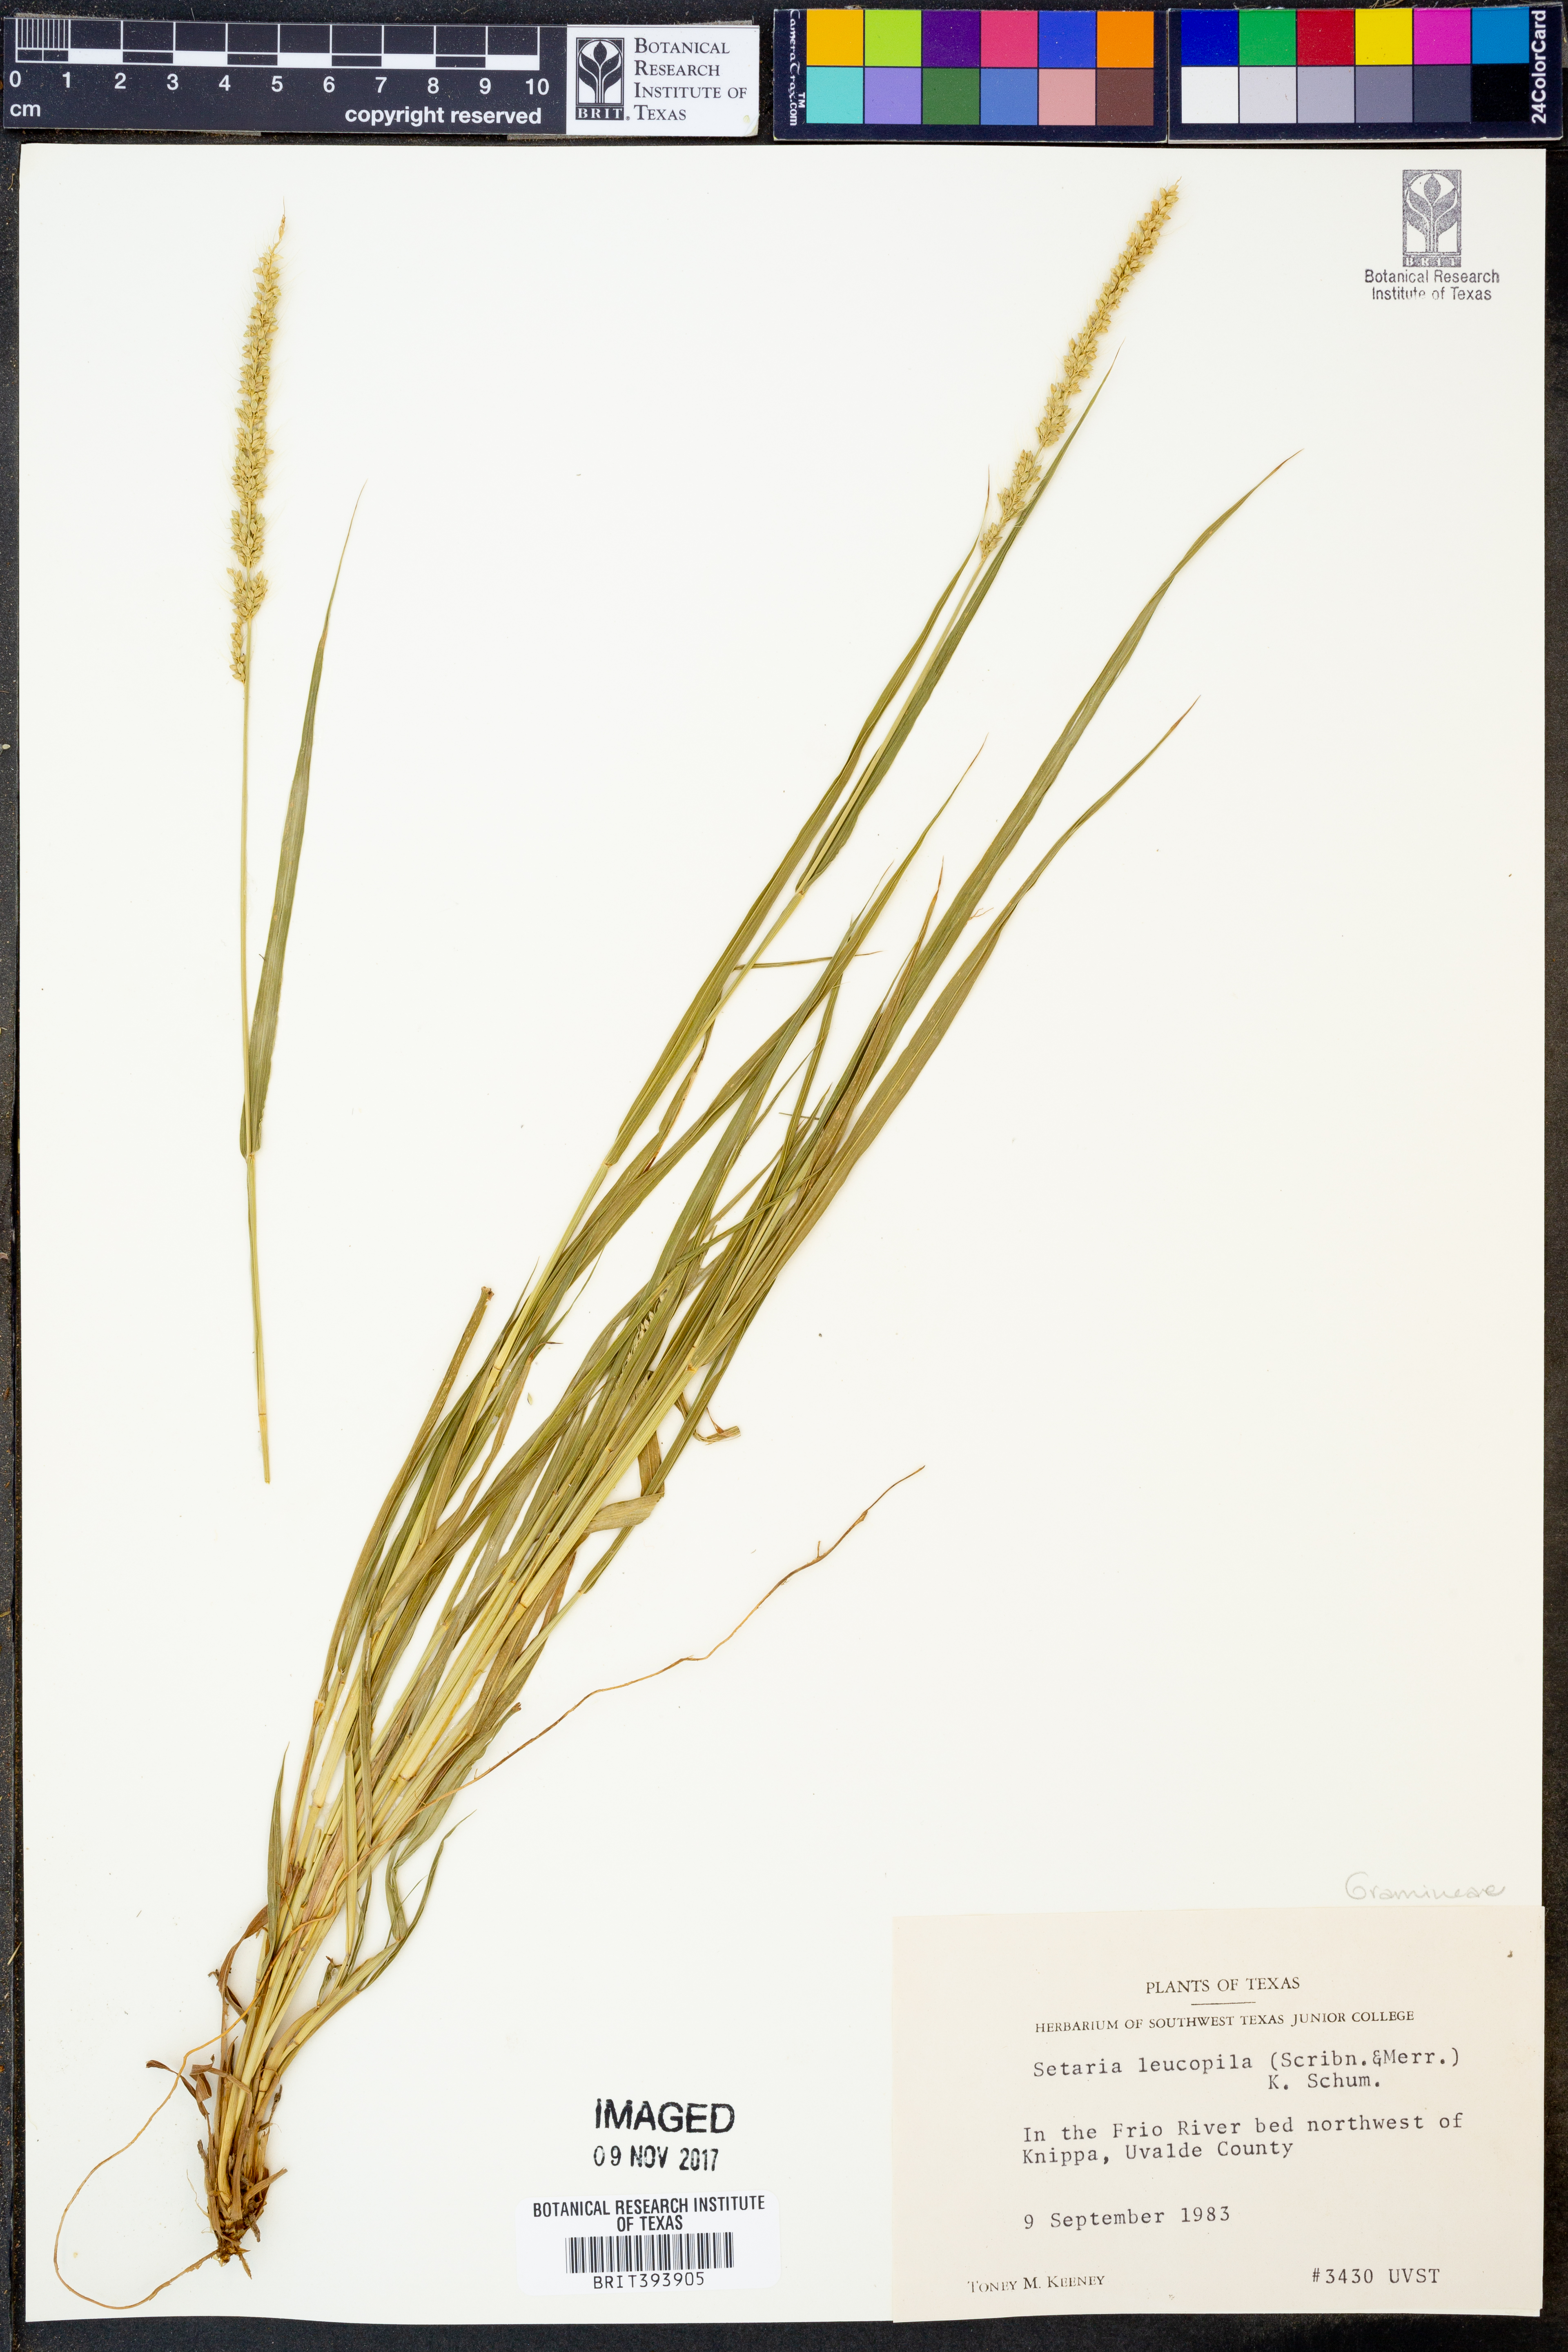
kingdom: Plantae
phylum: Tracheophyta
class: Liliopsida
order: Poales
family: Poaceae
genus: Setaria
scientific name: Setaria leucopila
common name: Plains bristle grass
